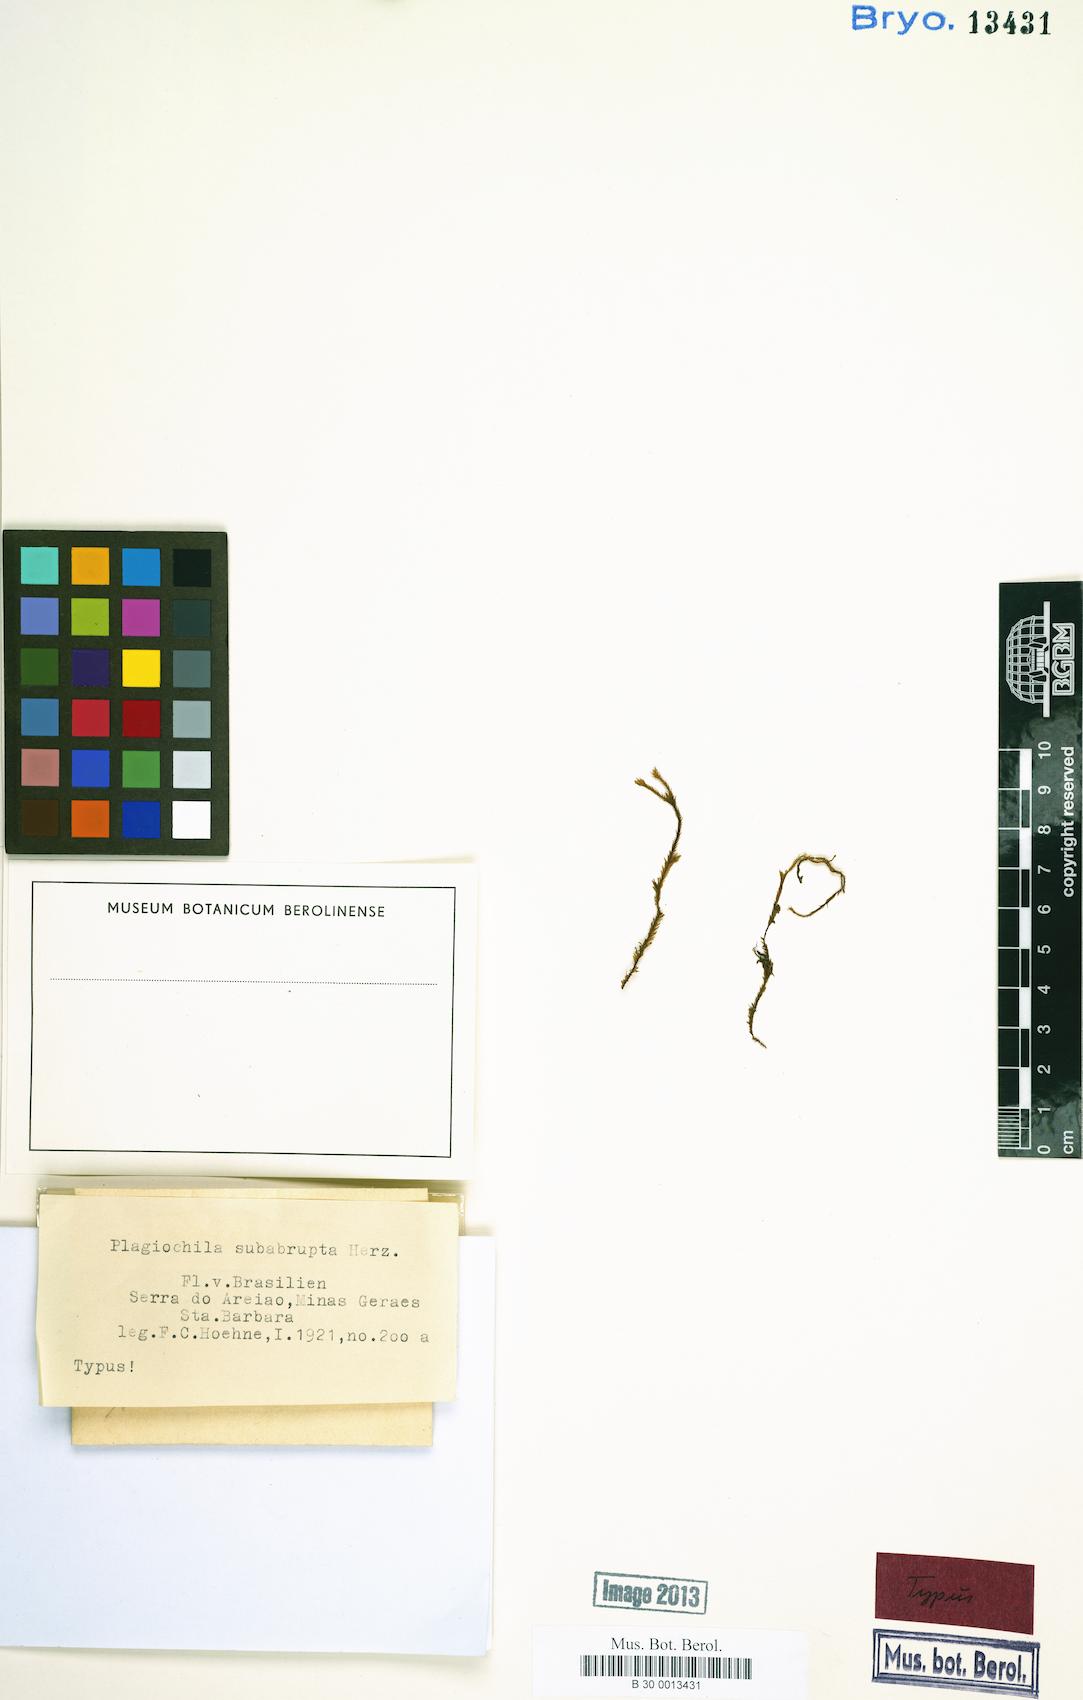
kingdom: Plantae
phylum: Marchantiophyta
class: Jungermanniopsida
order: Jungermanniales
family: Plagiochilaceae
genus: Plagiochila
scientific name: Plagiochila subbidentata
